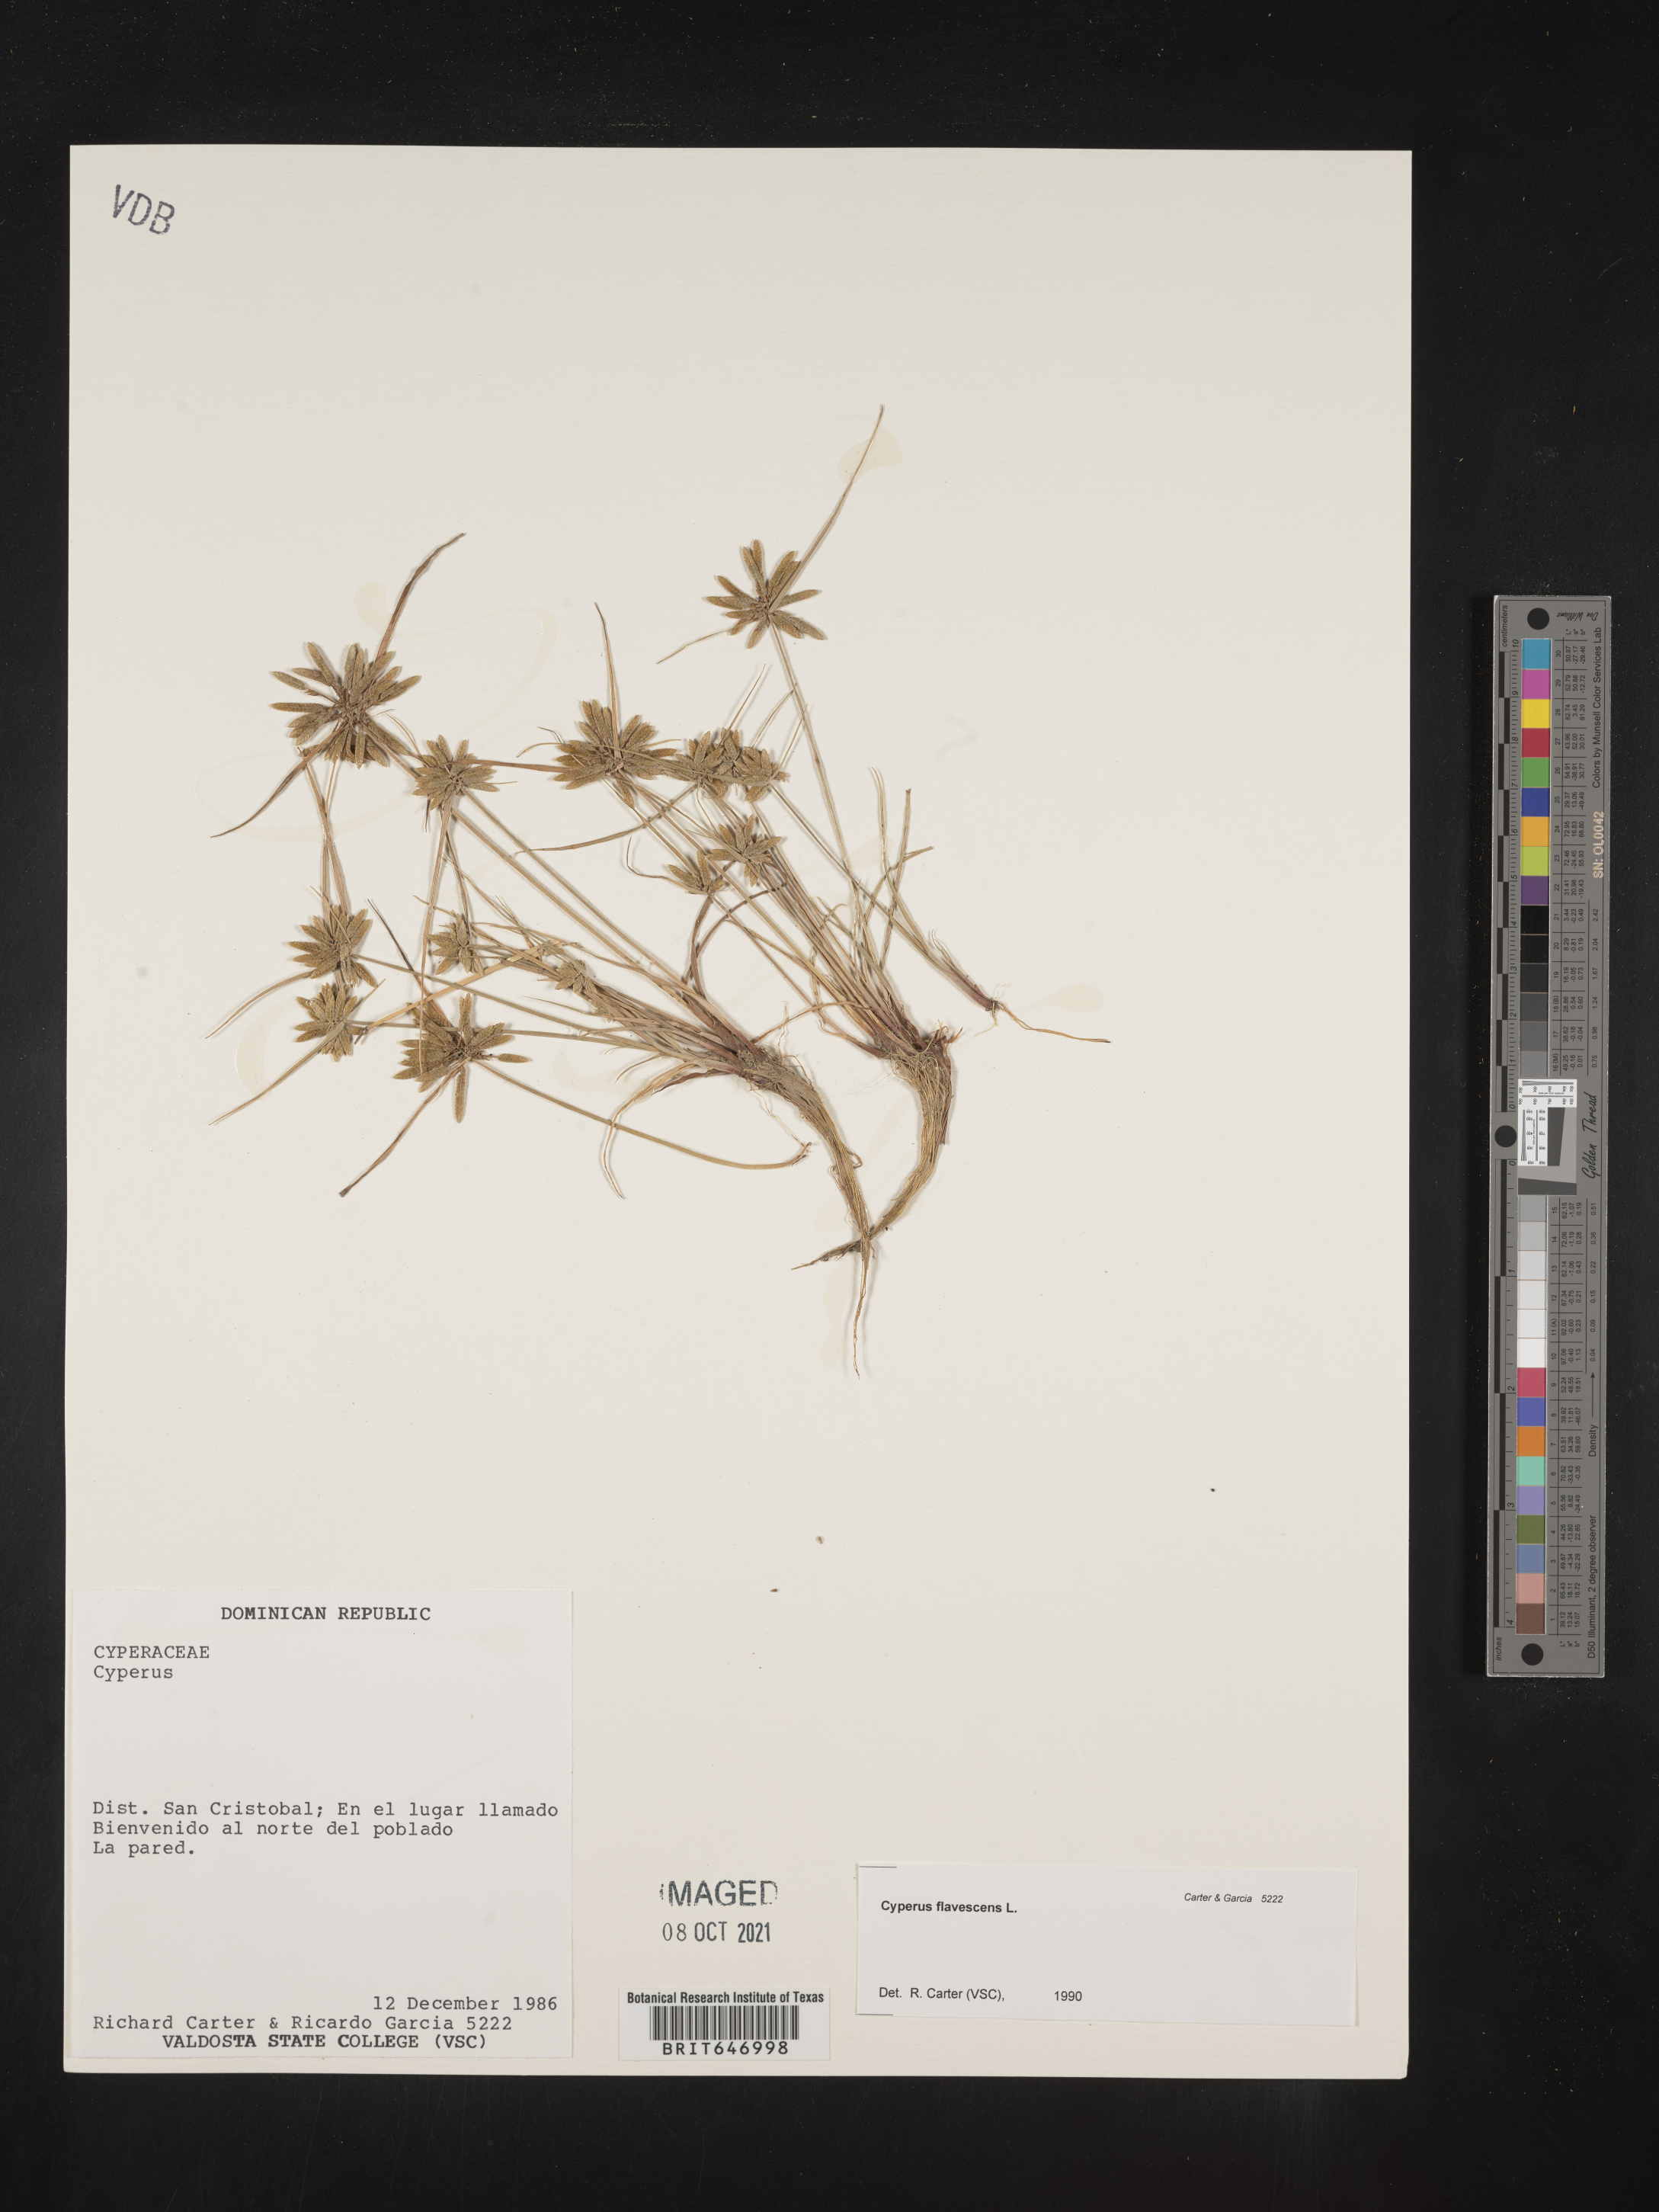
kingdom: Plantae
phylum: Tracheophyta
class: Liliopsida
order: Poales
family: Cyperaceae
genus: Cyperus
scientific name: Cyperus flavescens
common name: Yellow galingale
